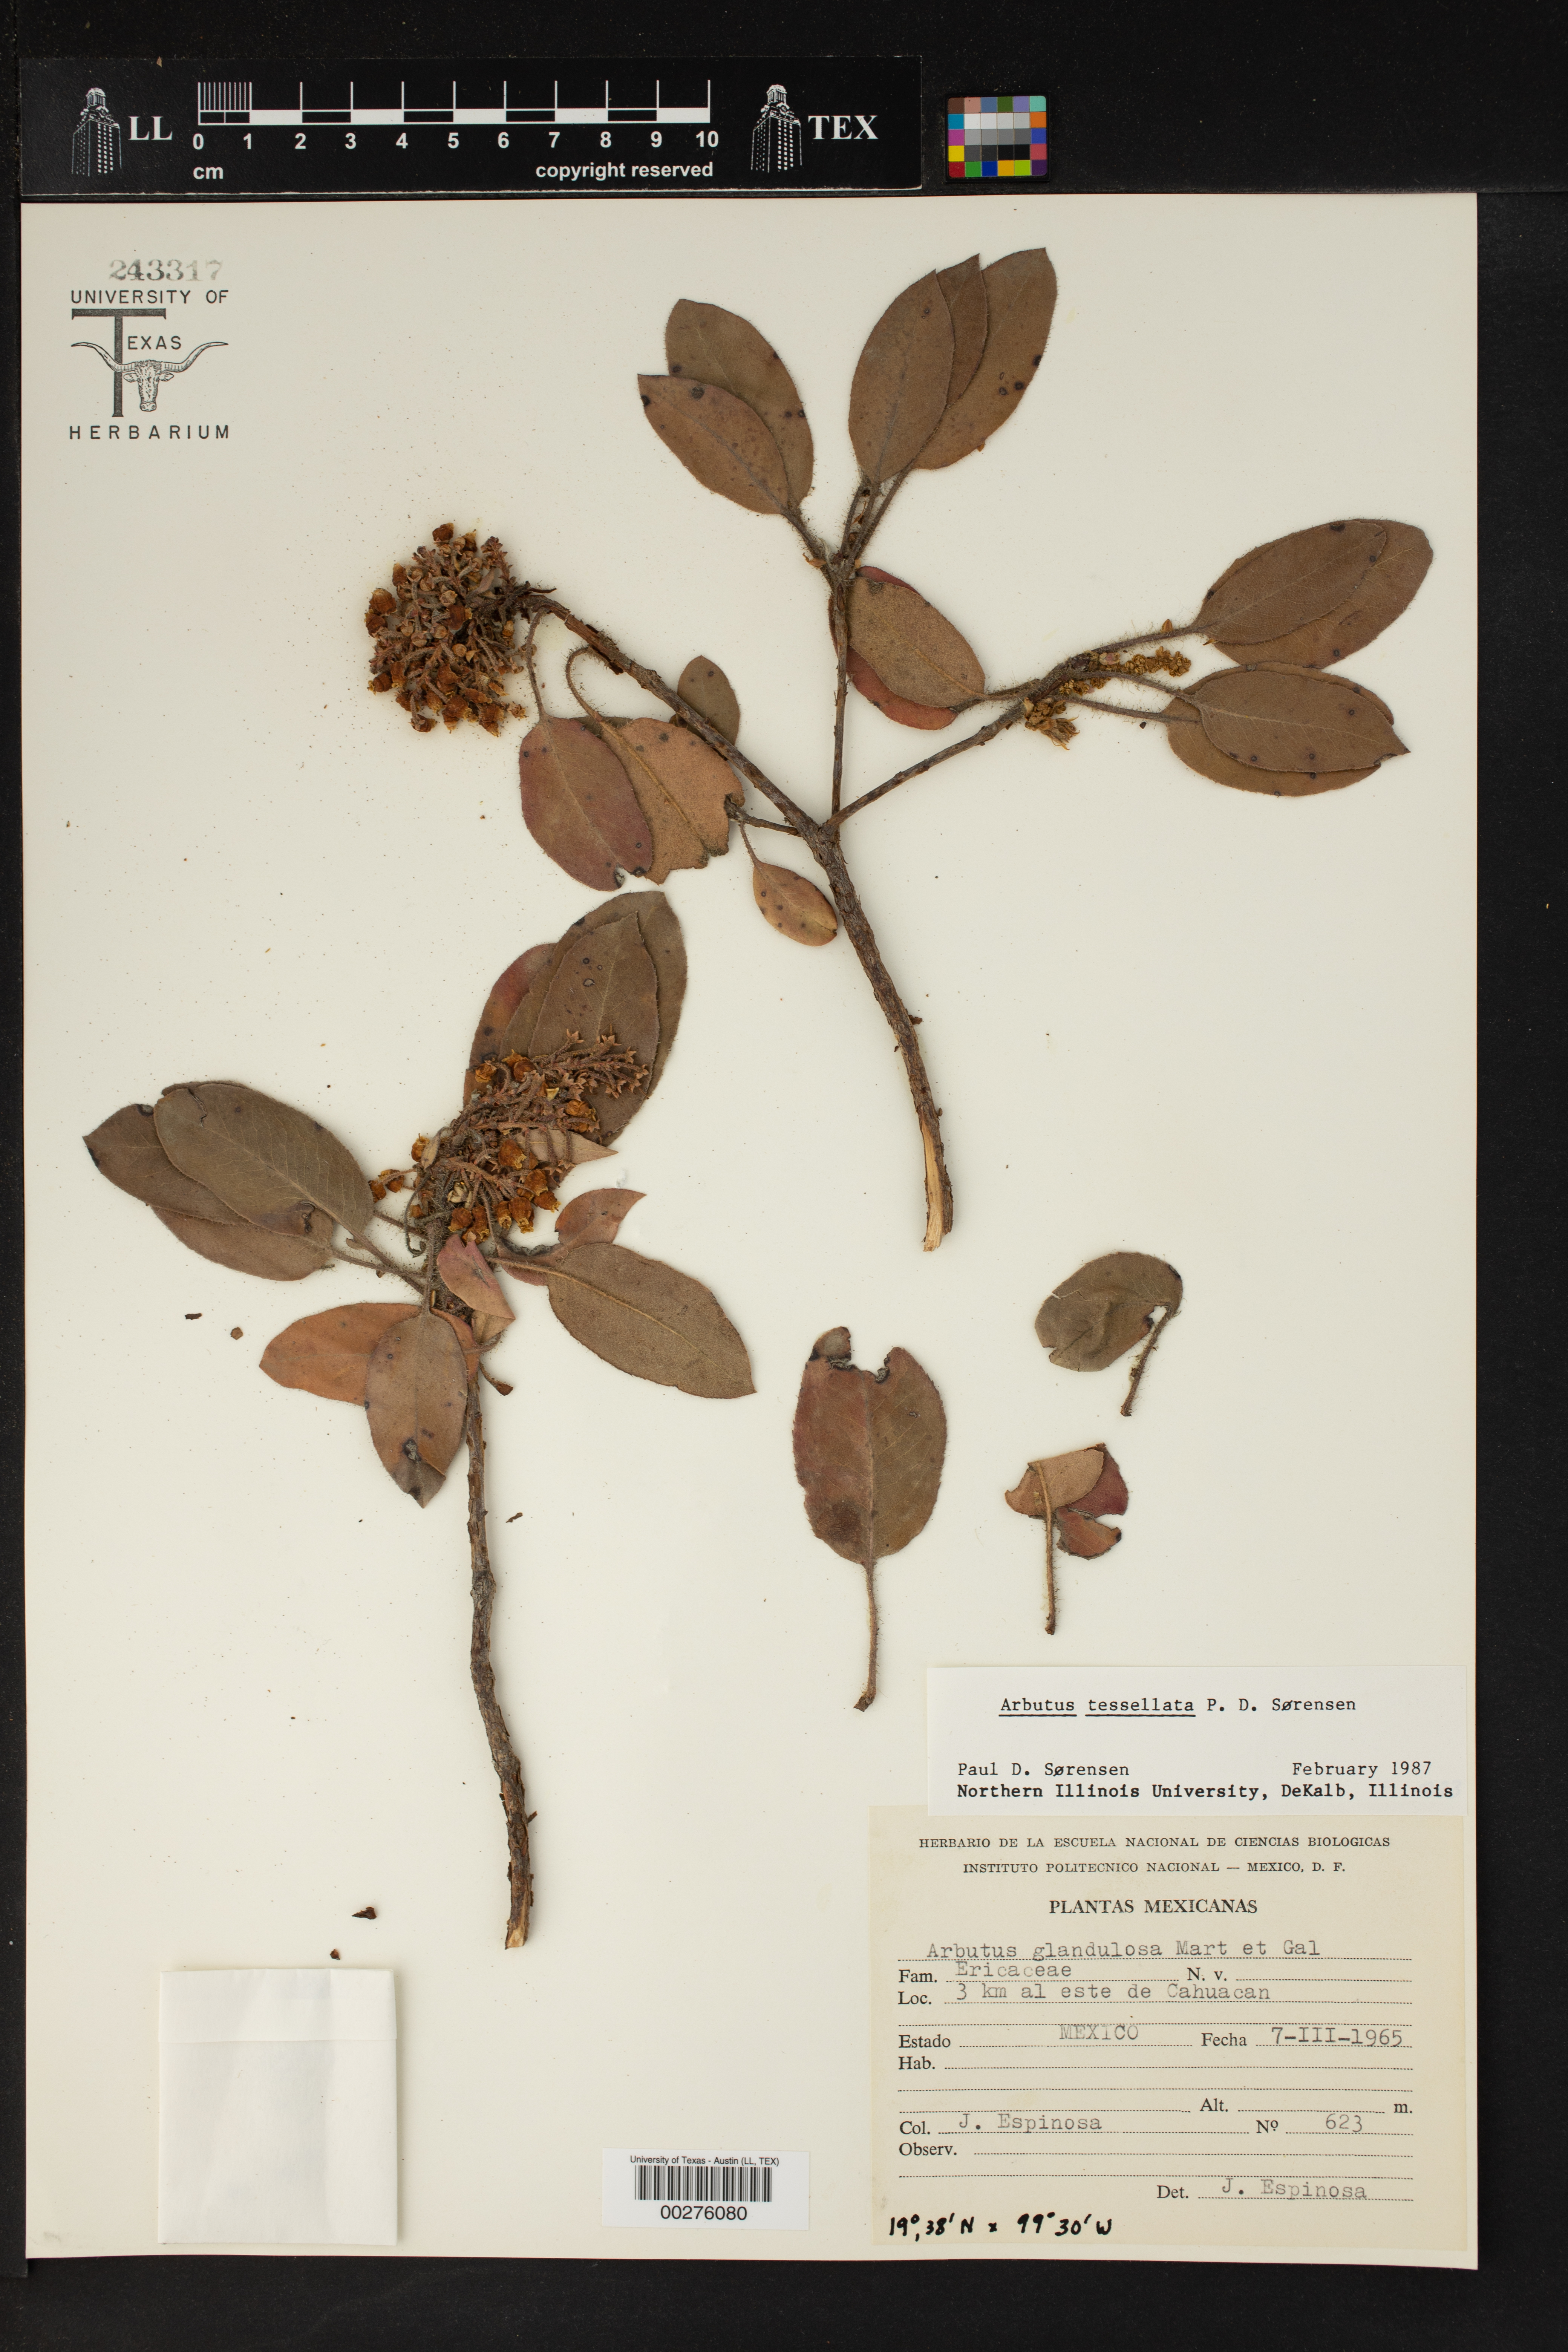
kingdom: Plantae
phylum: Tracheophyta
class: Magnoliopsida
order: Ericales
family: Ericaceae
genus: Arbutus
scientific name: Arbutus tessellata
